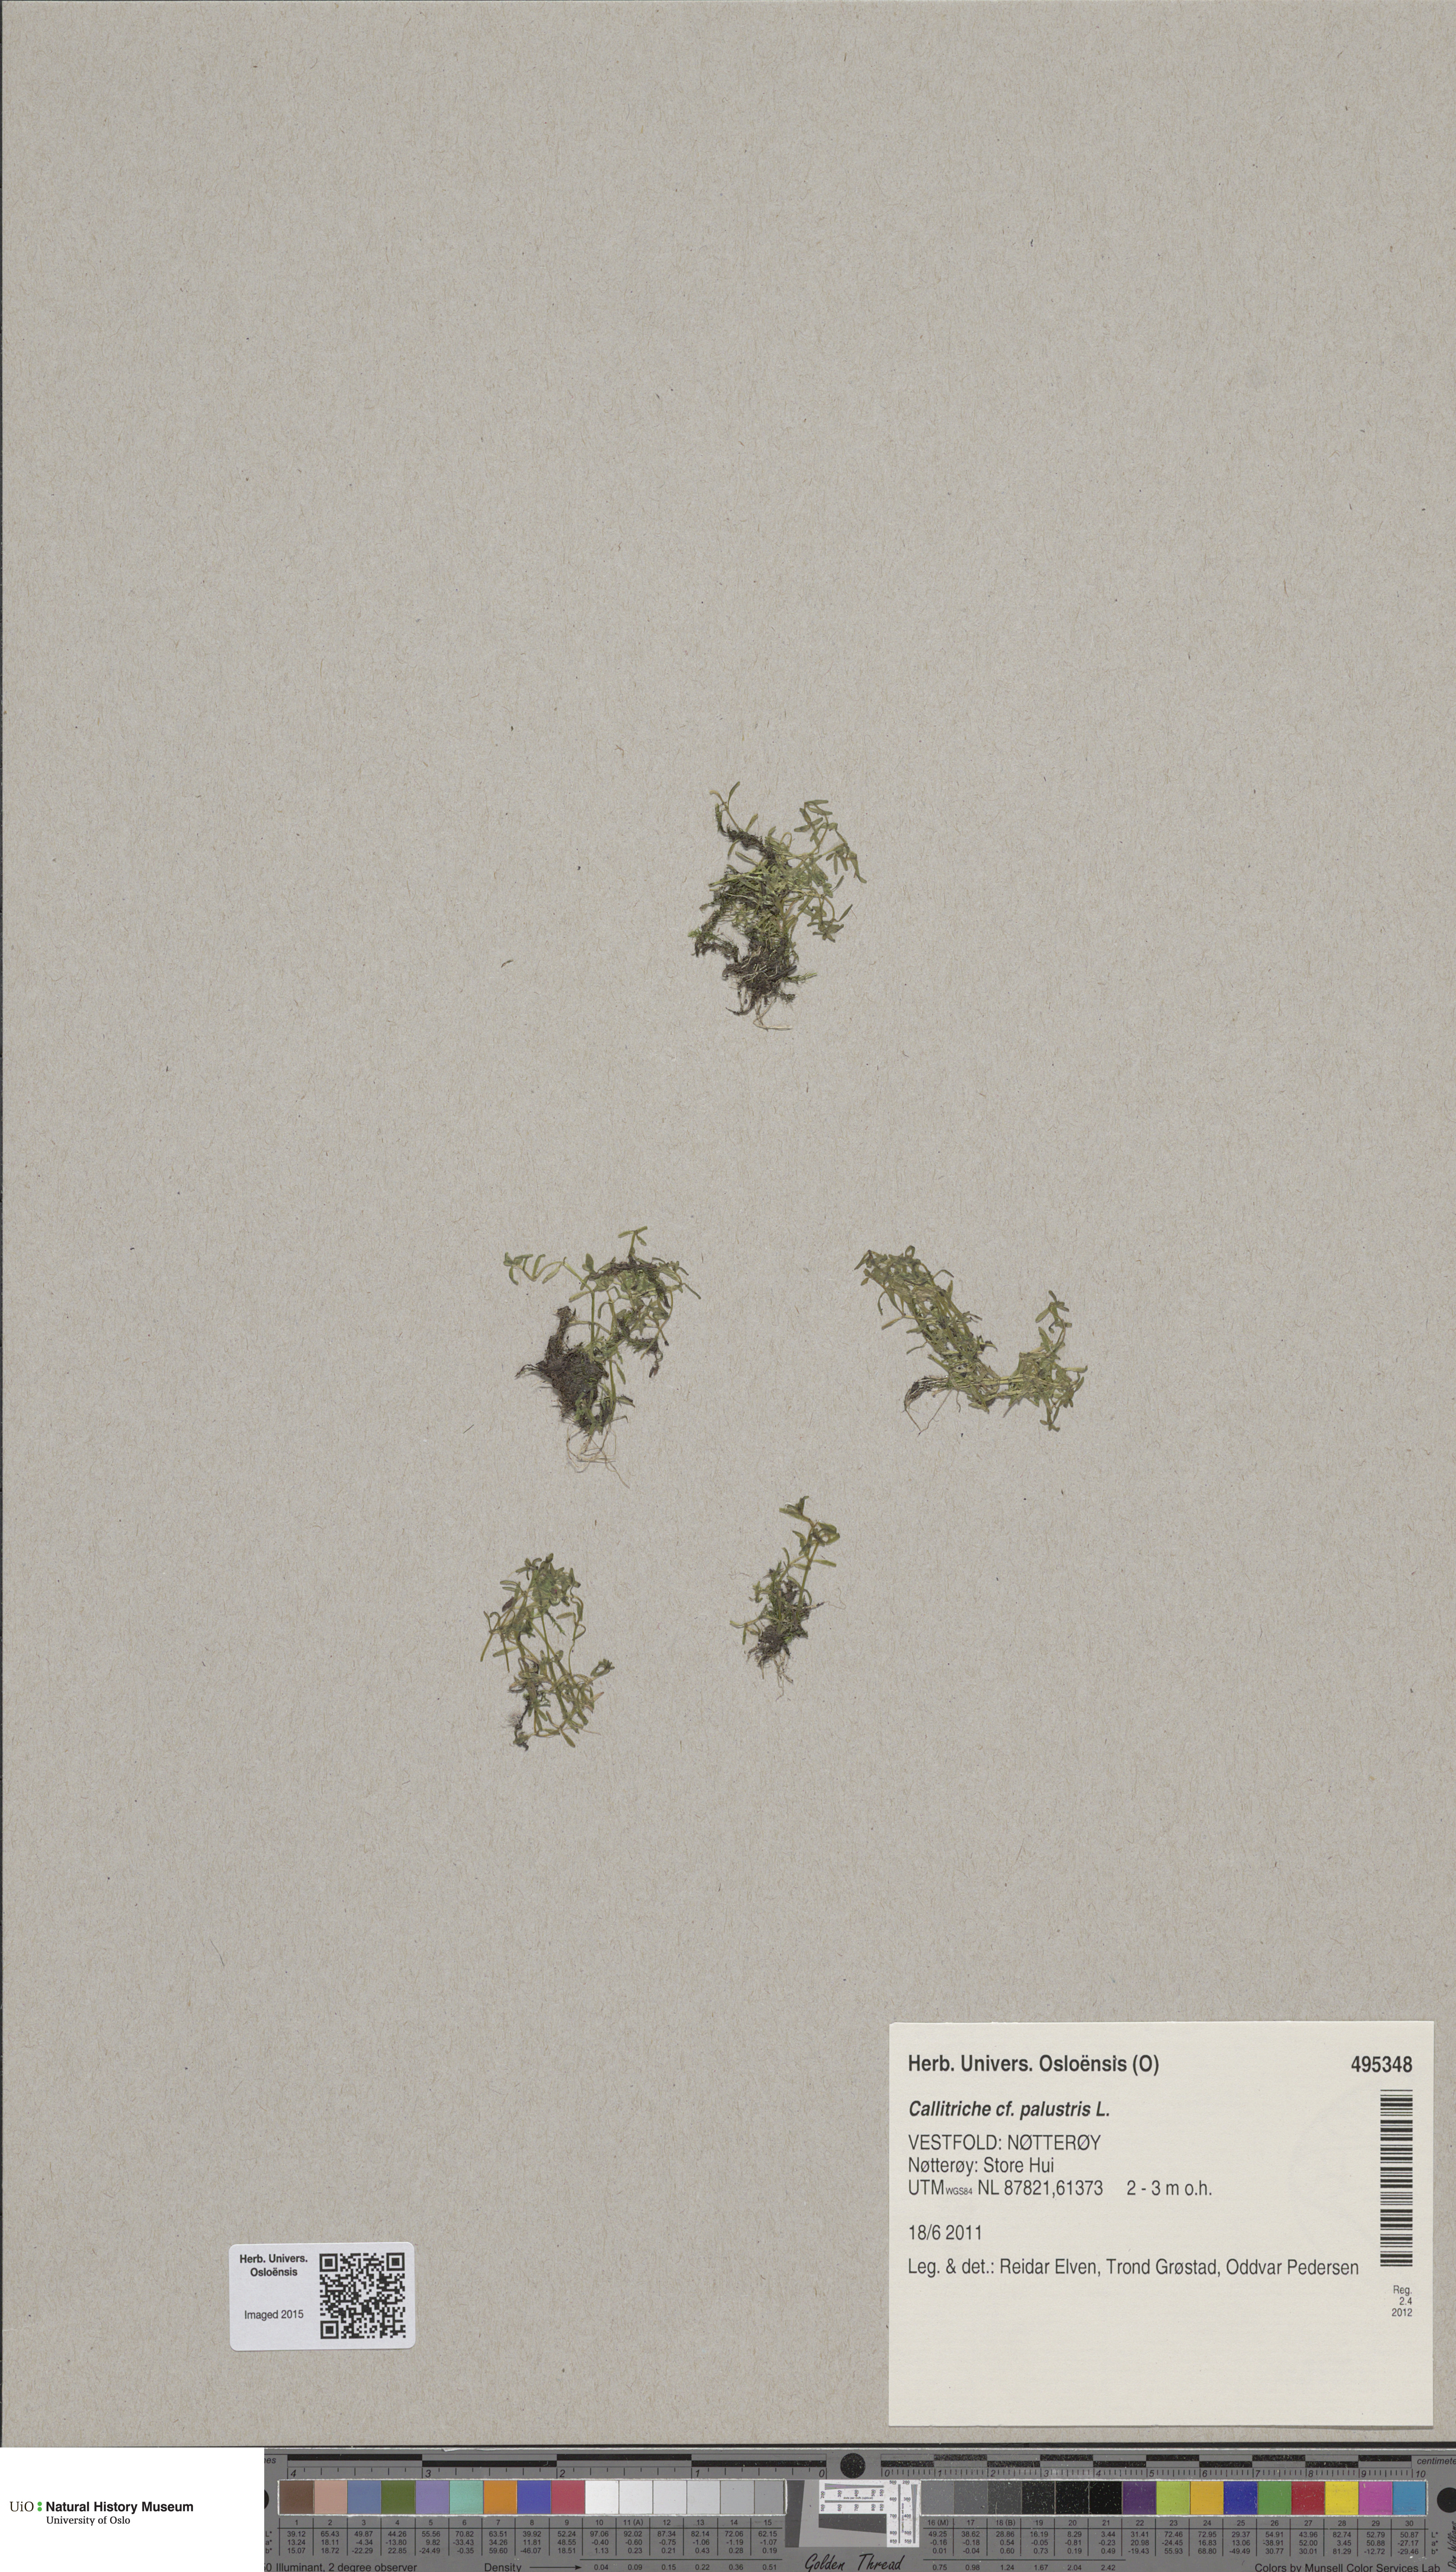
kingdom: Plantae
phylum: Tracheophyta
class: Magnoliopsida
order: Lamiales
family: Plantaginaceae
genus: Callitriche
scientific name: Callitriche palustris
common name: Spring water-starwort
